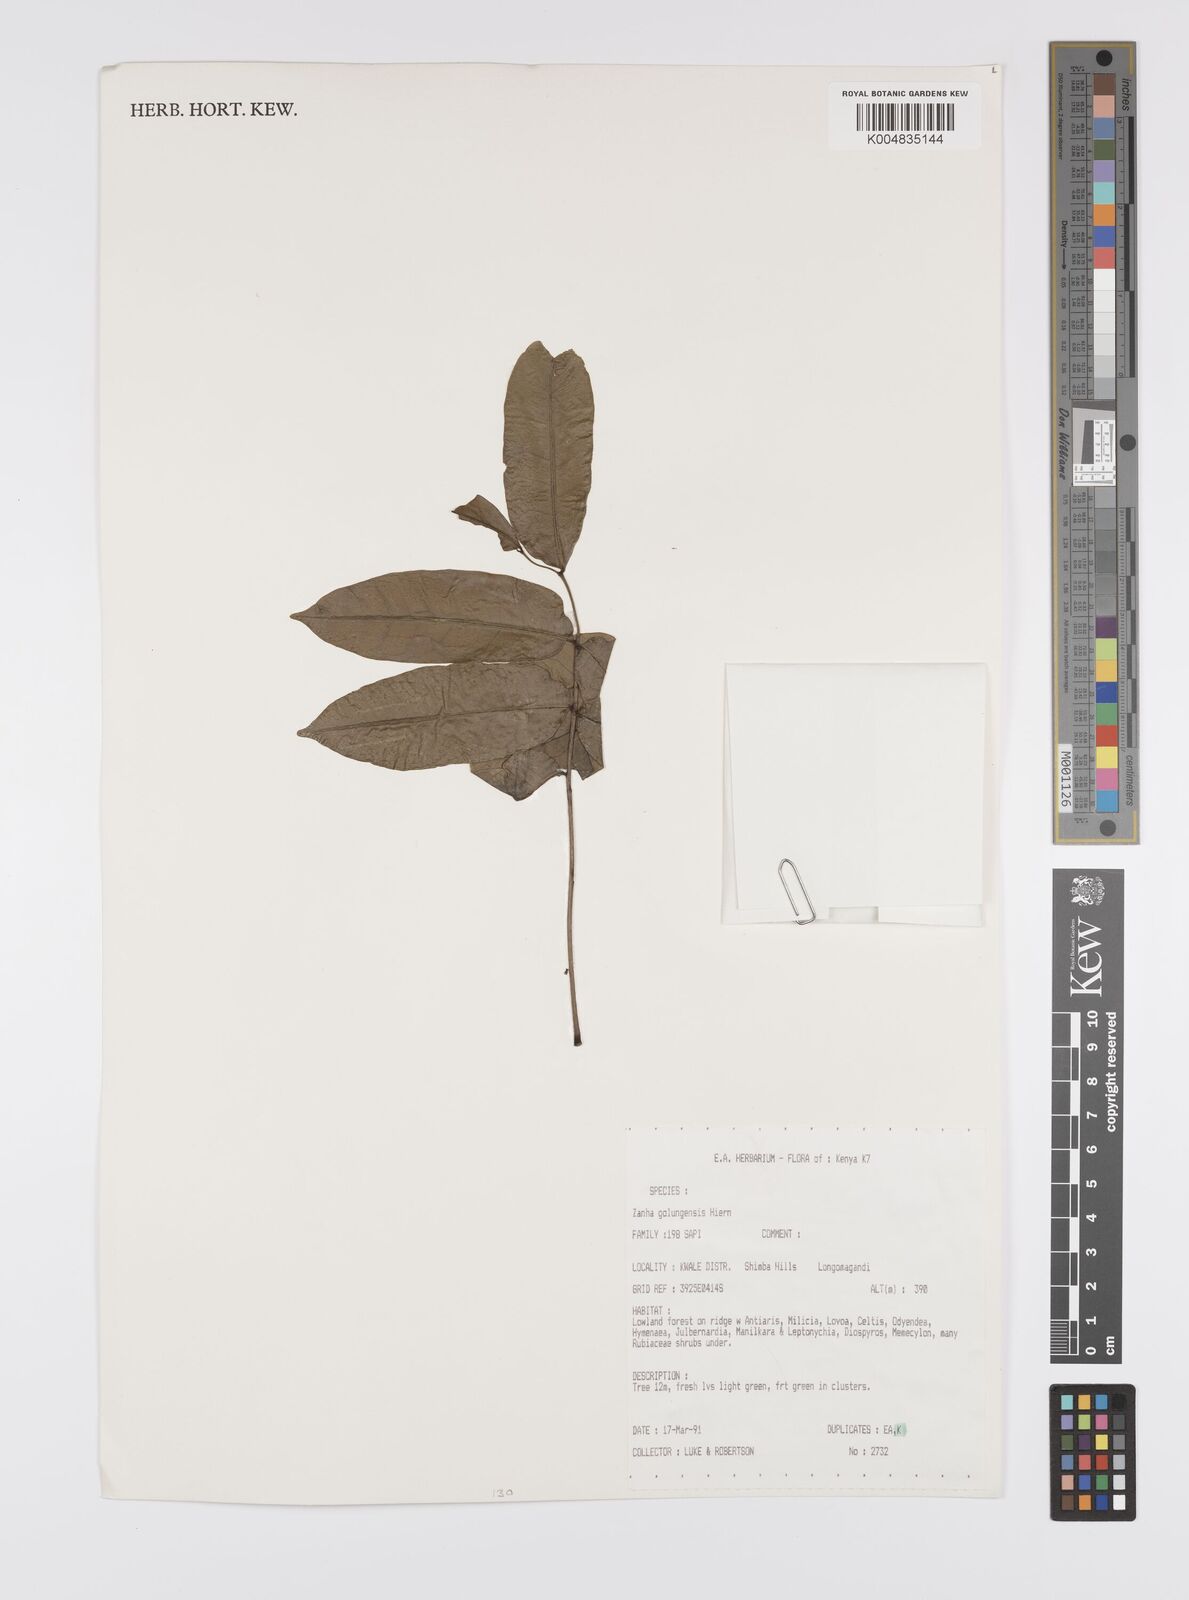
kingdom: Plantae
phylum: Tracheophyta
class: Magnoliopsida
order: Sapindales
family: Sapindaceae
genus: Zanha
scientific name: Zanha africana
